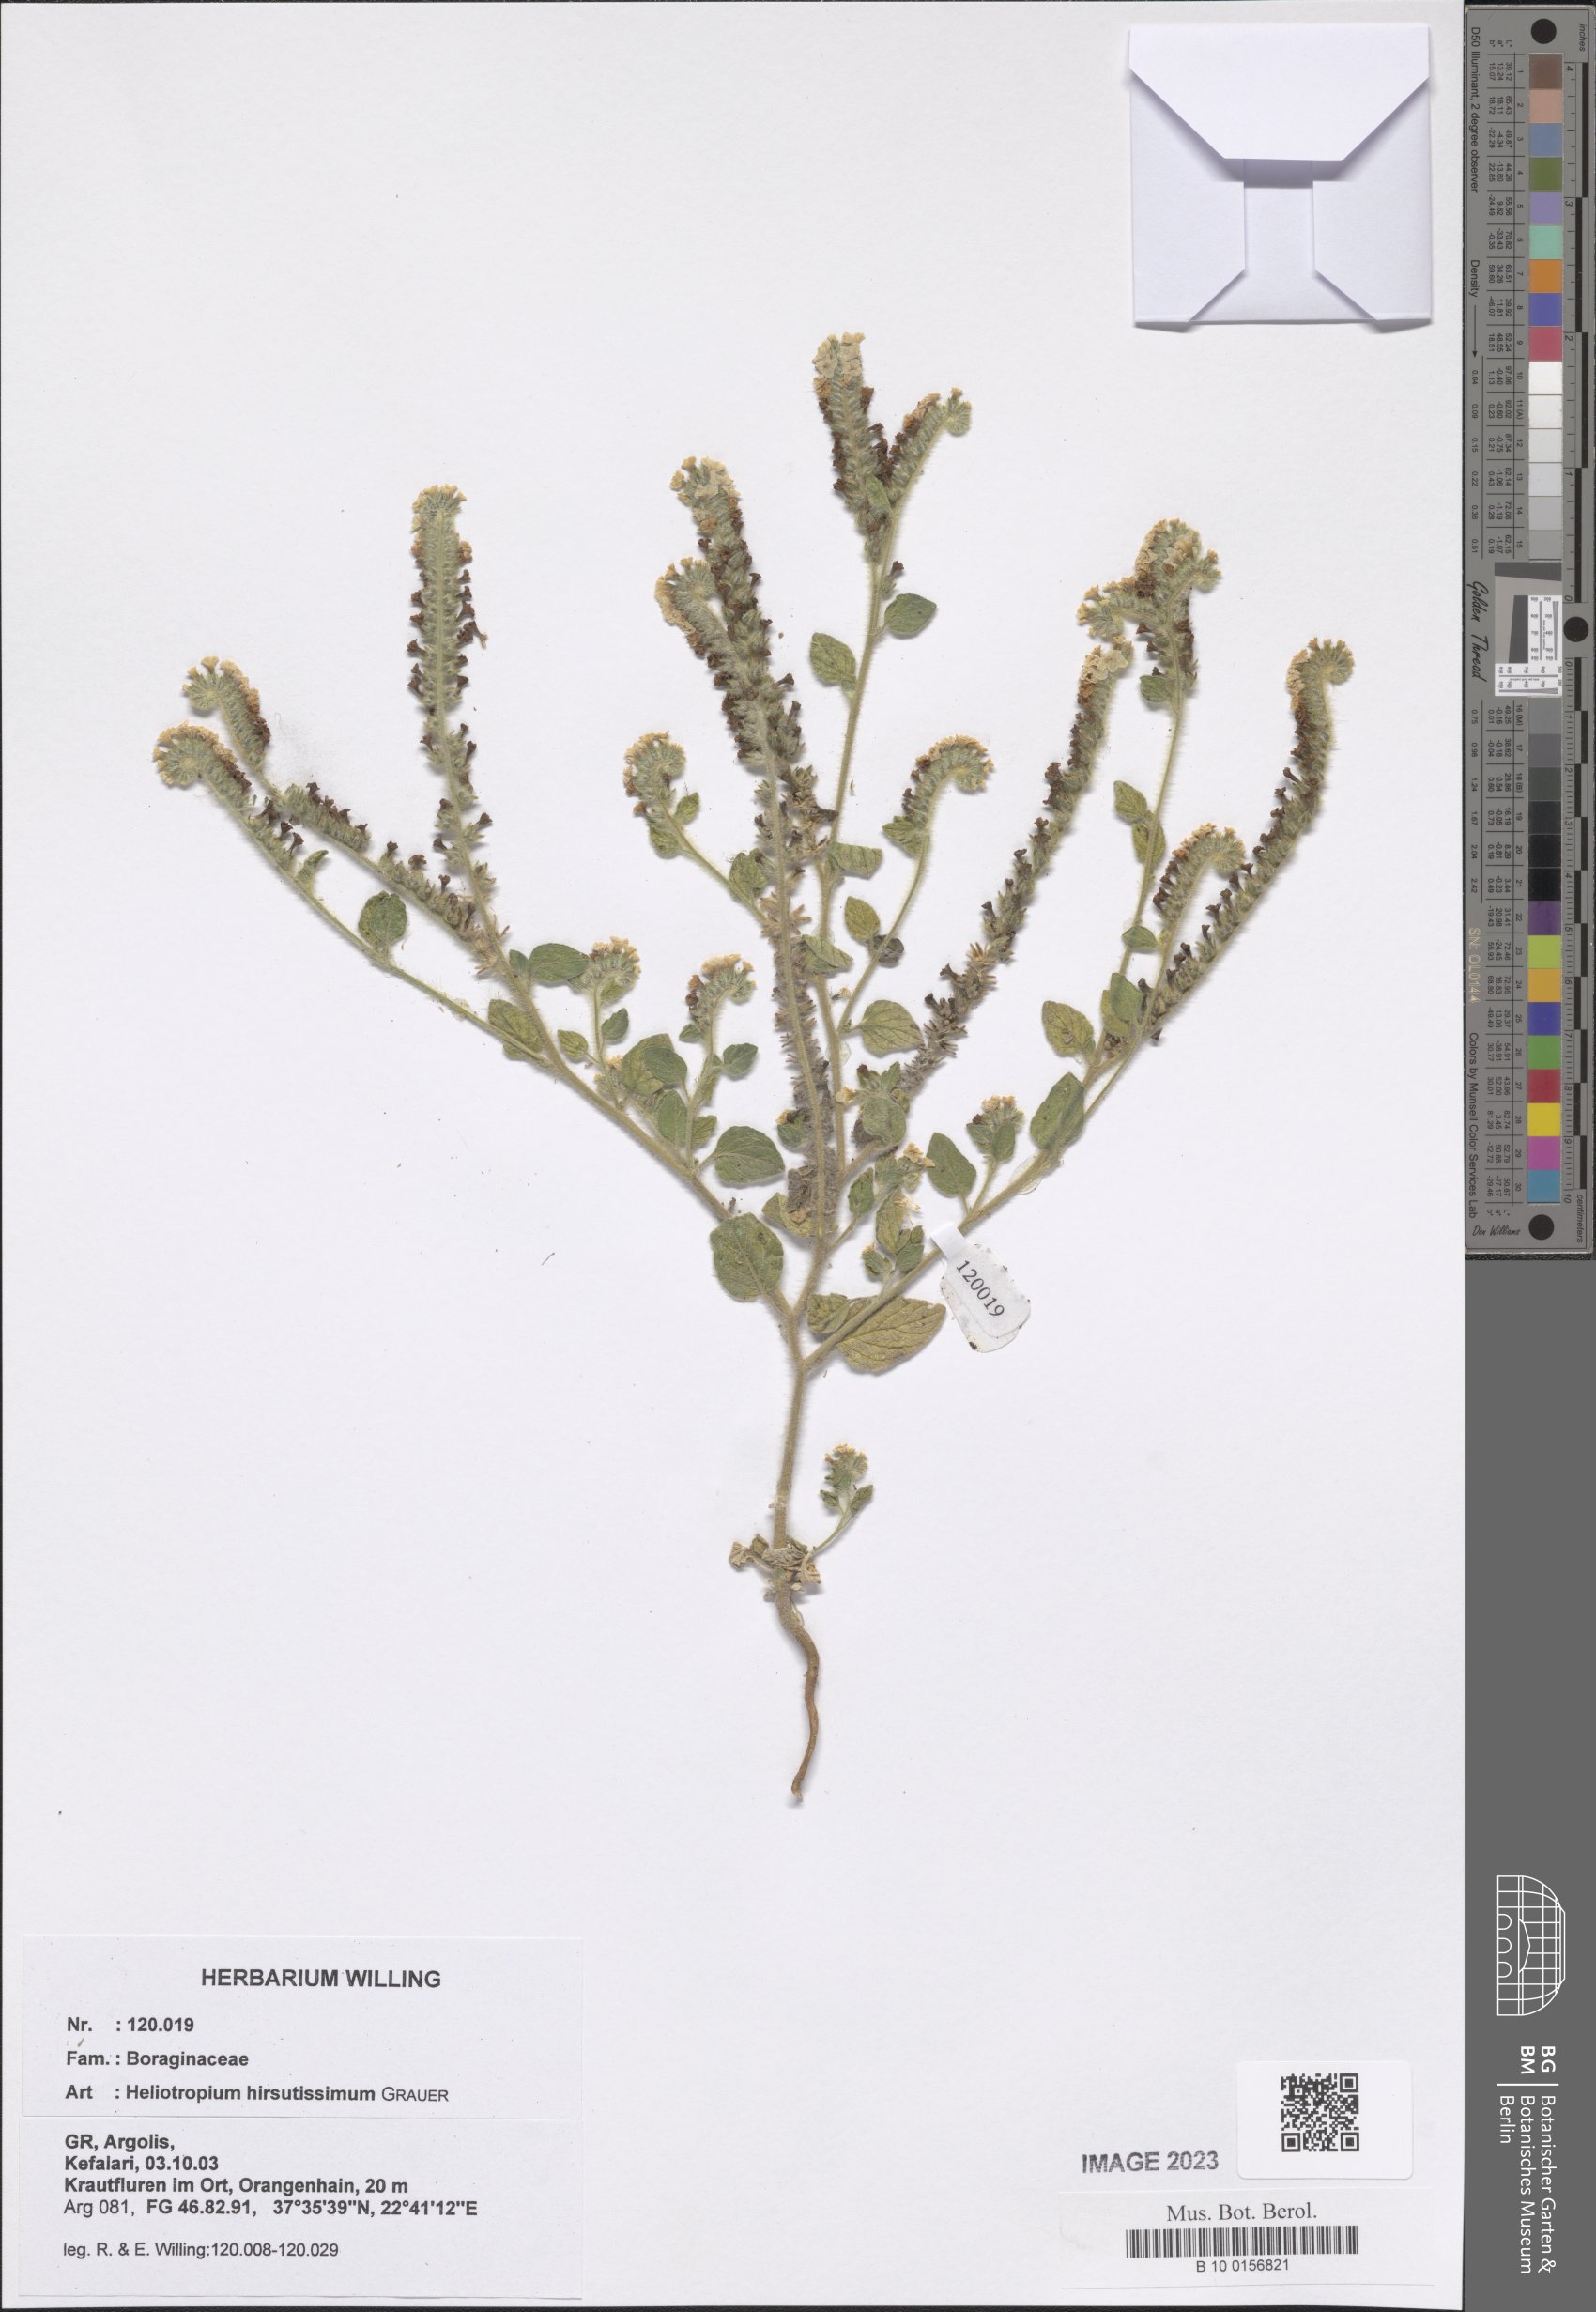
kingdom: Plantae
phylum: Tracheophyta
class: Magnoliopsida
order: Boraginales
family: Heliotropiaceae
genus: Heliotropium
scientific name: Heliotropium hirsutissimum
